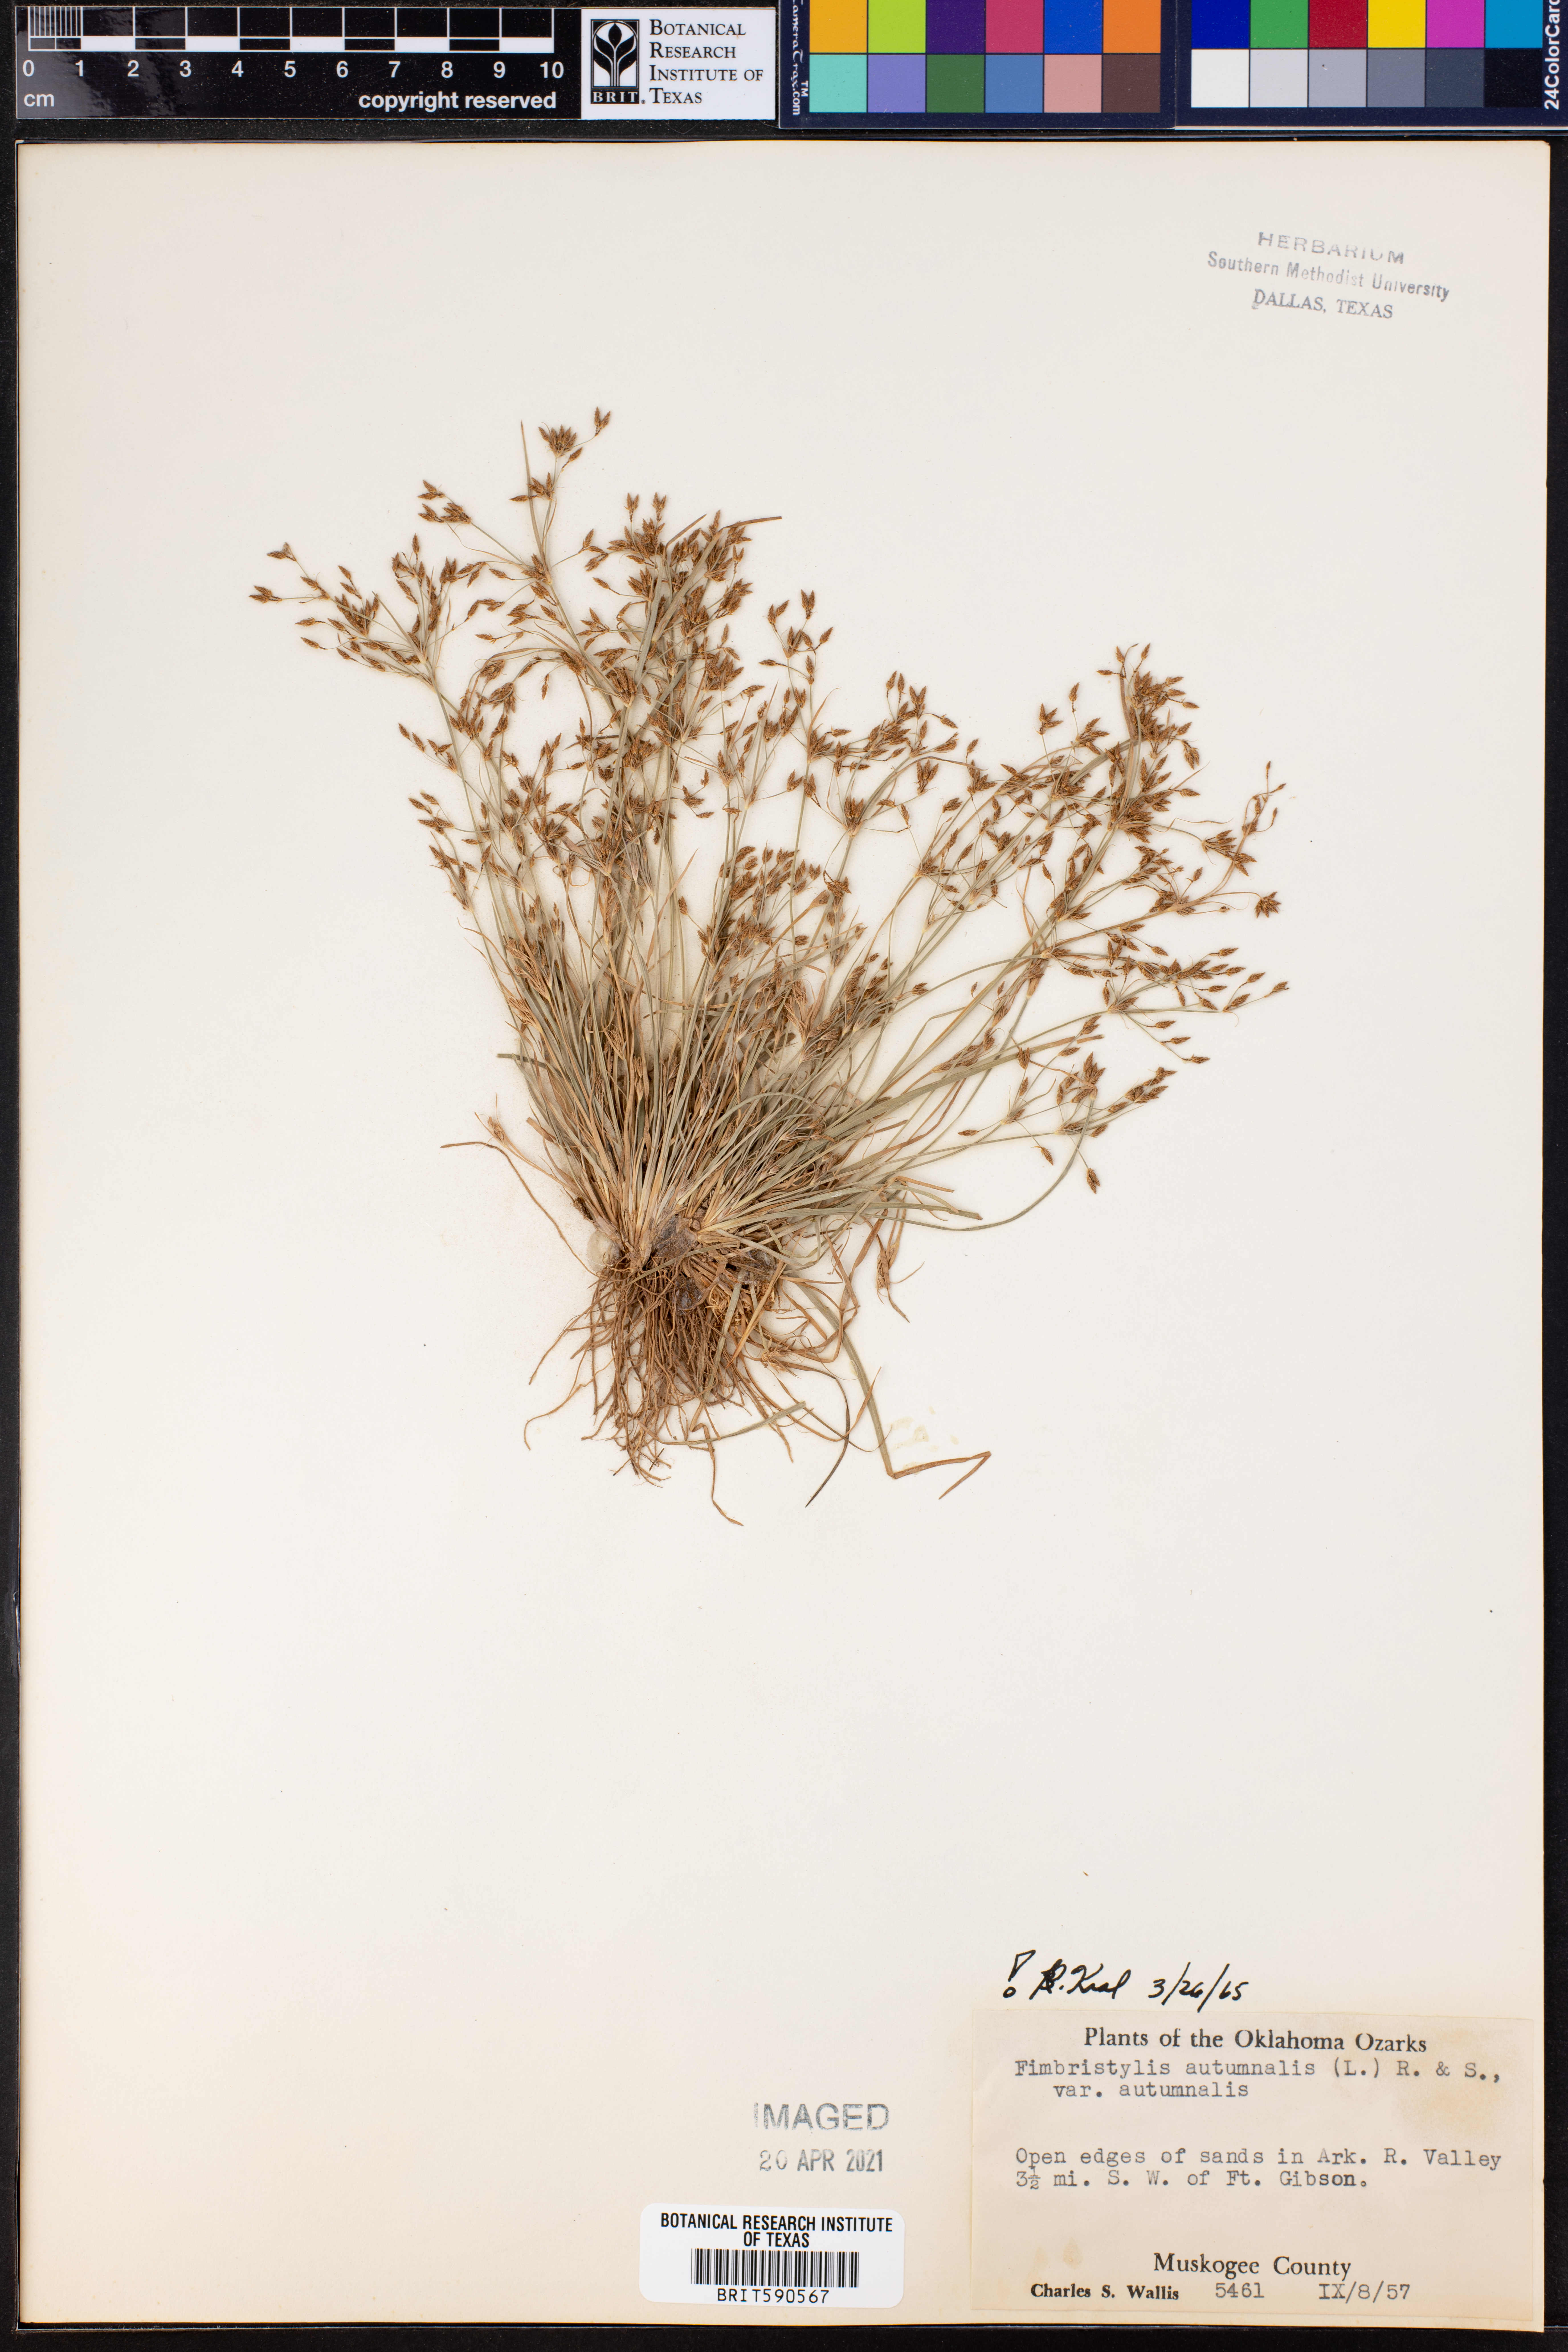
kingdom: Plantae
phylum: Tracheophyta
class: Liliopsida
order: Poales
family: Cyperaceae
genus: Fimbristylis
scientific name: Fimbristylis autumnalis
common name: Slender fimbristylis
